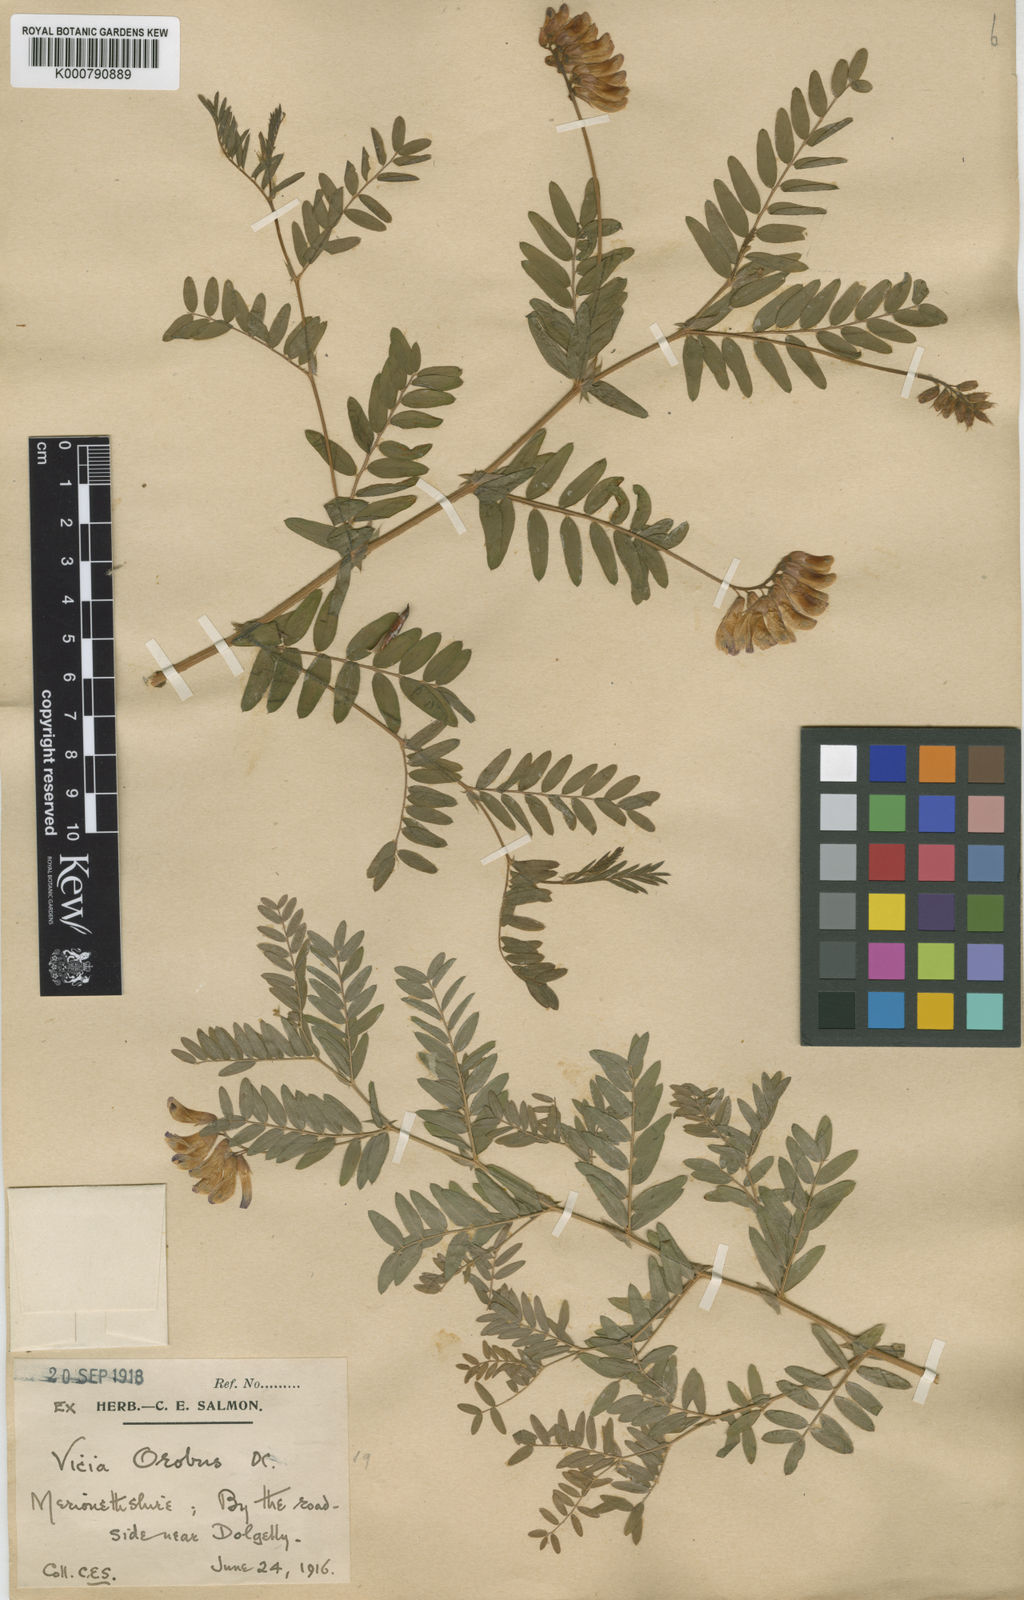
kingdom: Plantae
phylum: Tracheophyta
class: Magnoliopsida
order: Fabales
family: Fabaceae
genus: Vicia
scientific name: Vicia orobus
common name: Wood bitter-vetch
